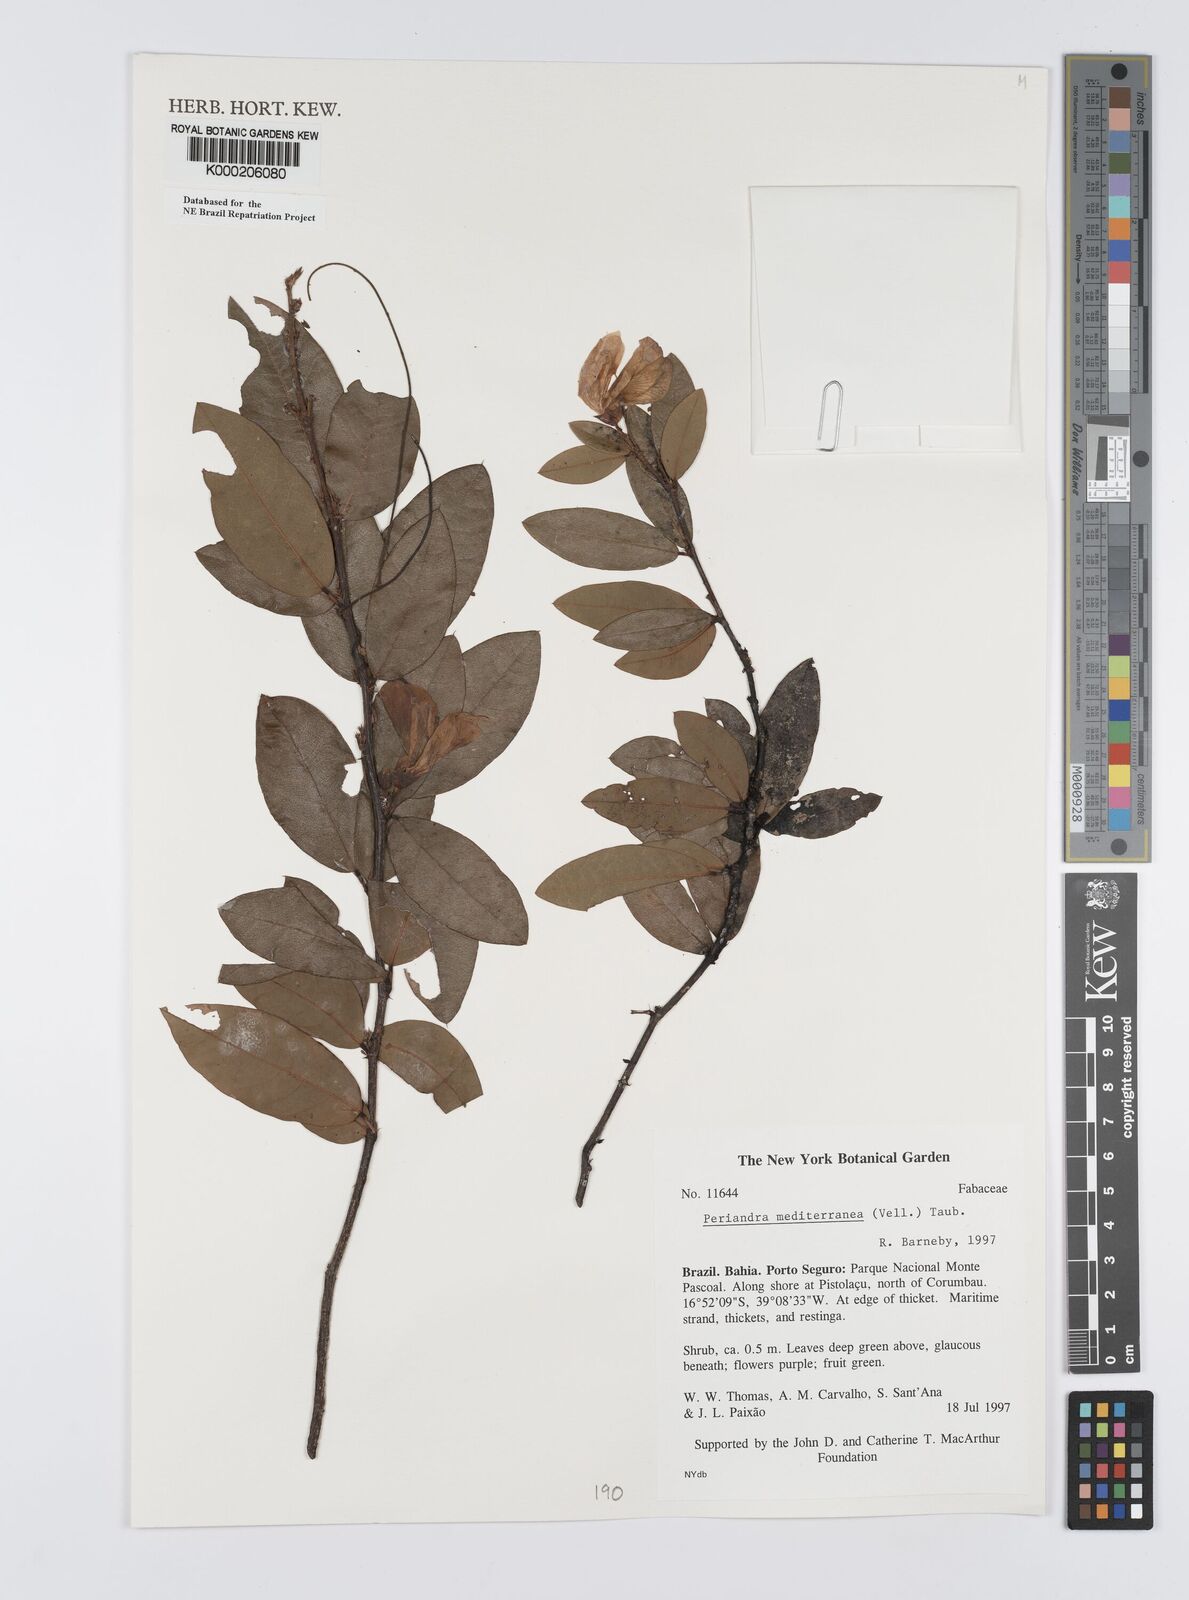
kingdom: Plantae
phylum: Tracheophyta
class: Magnoliopsida
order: Fabales
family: Fabaceae
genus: Periandra
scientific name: Periandra mediterranea
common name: Brazilian licorice
